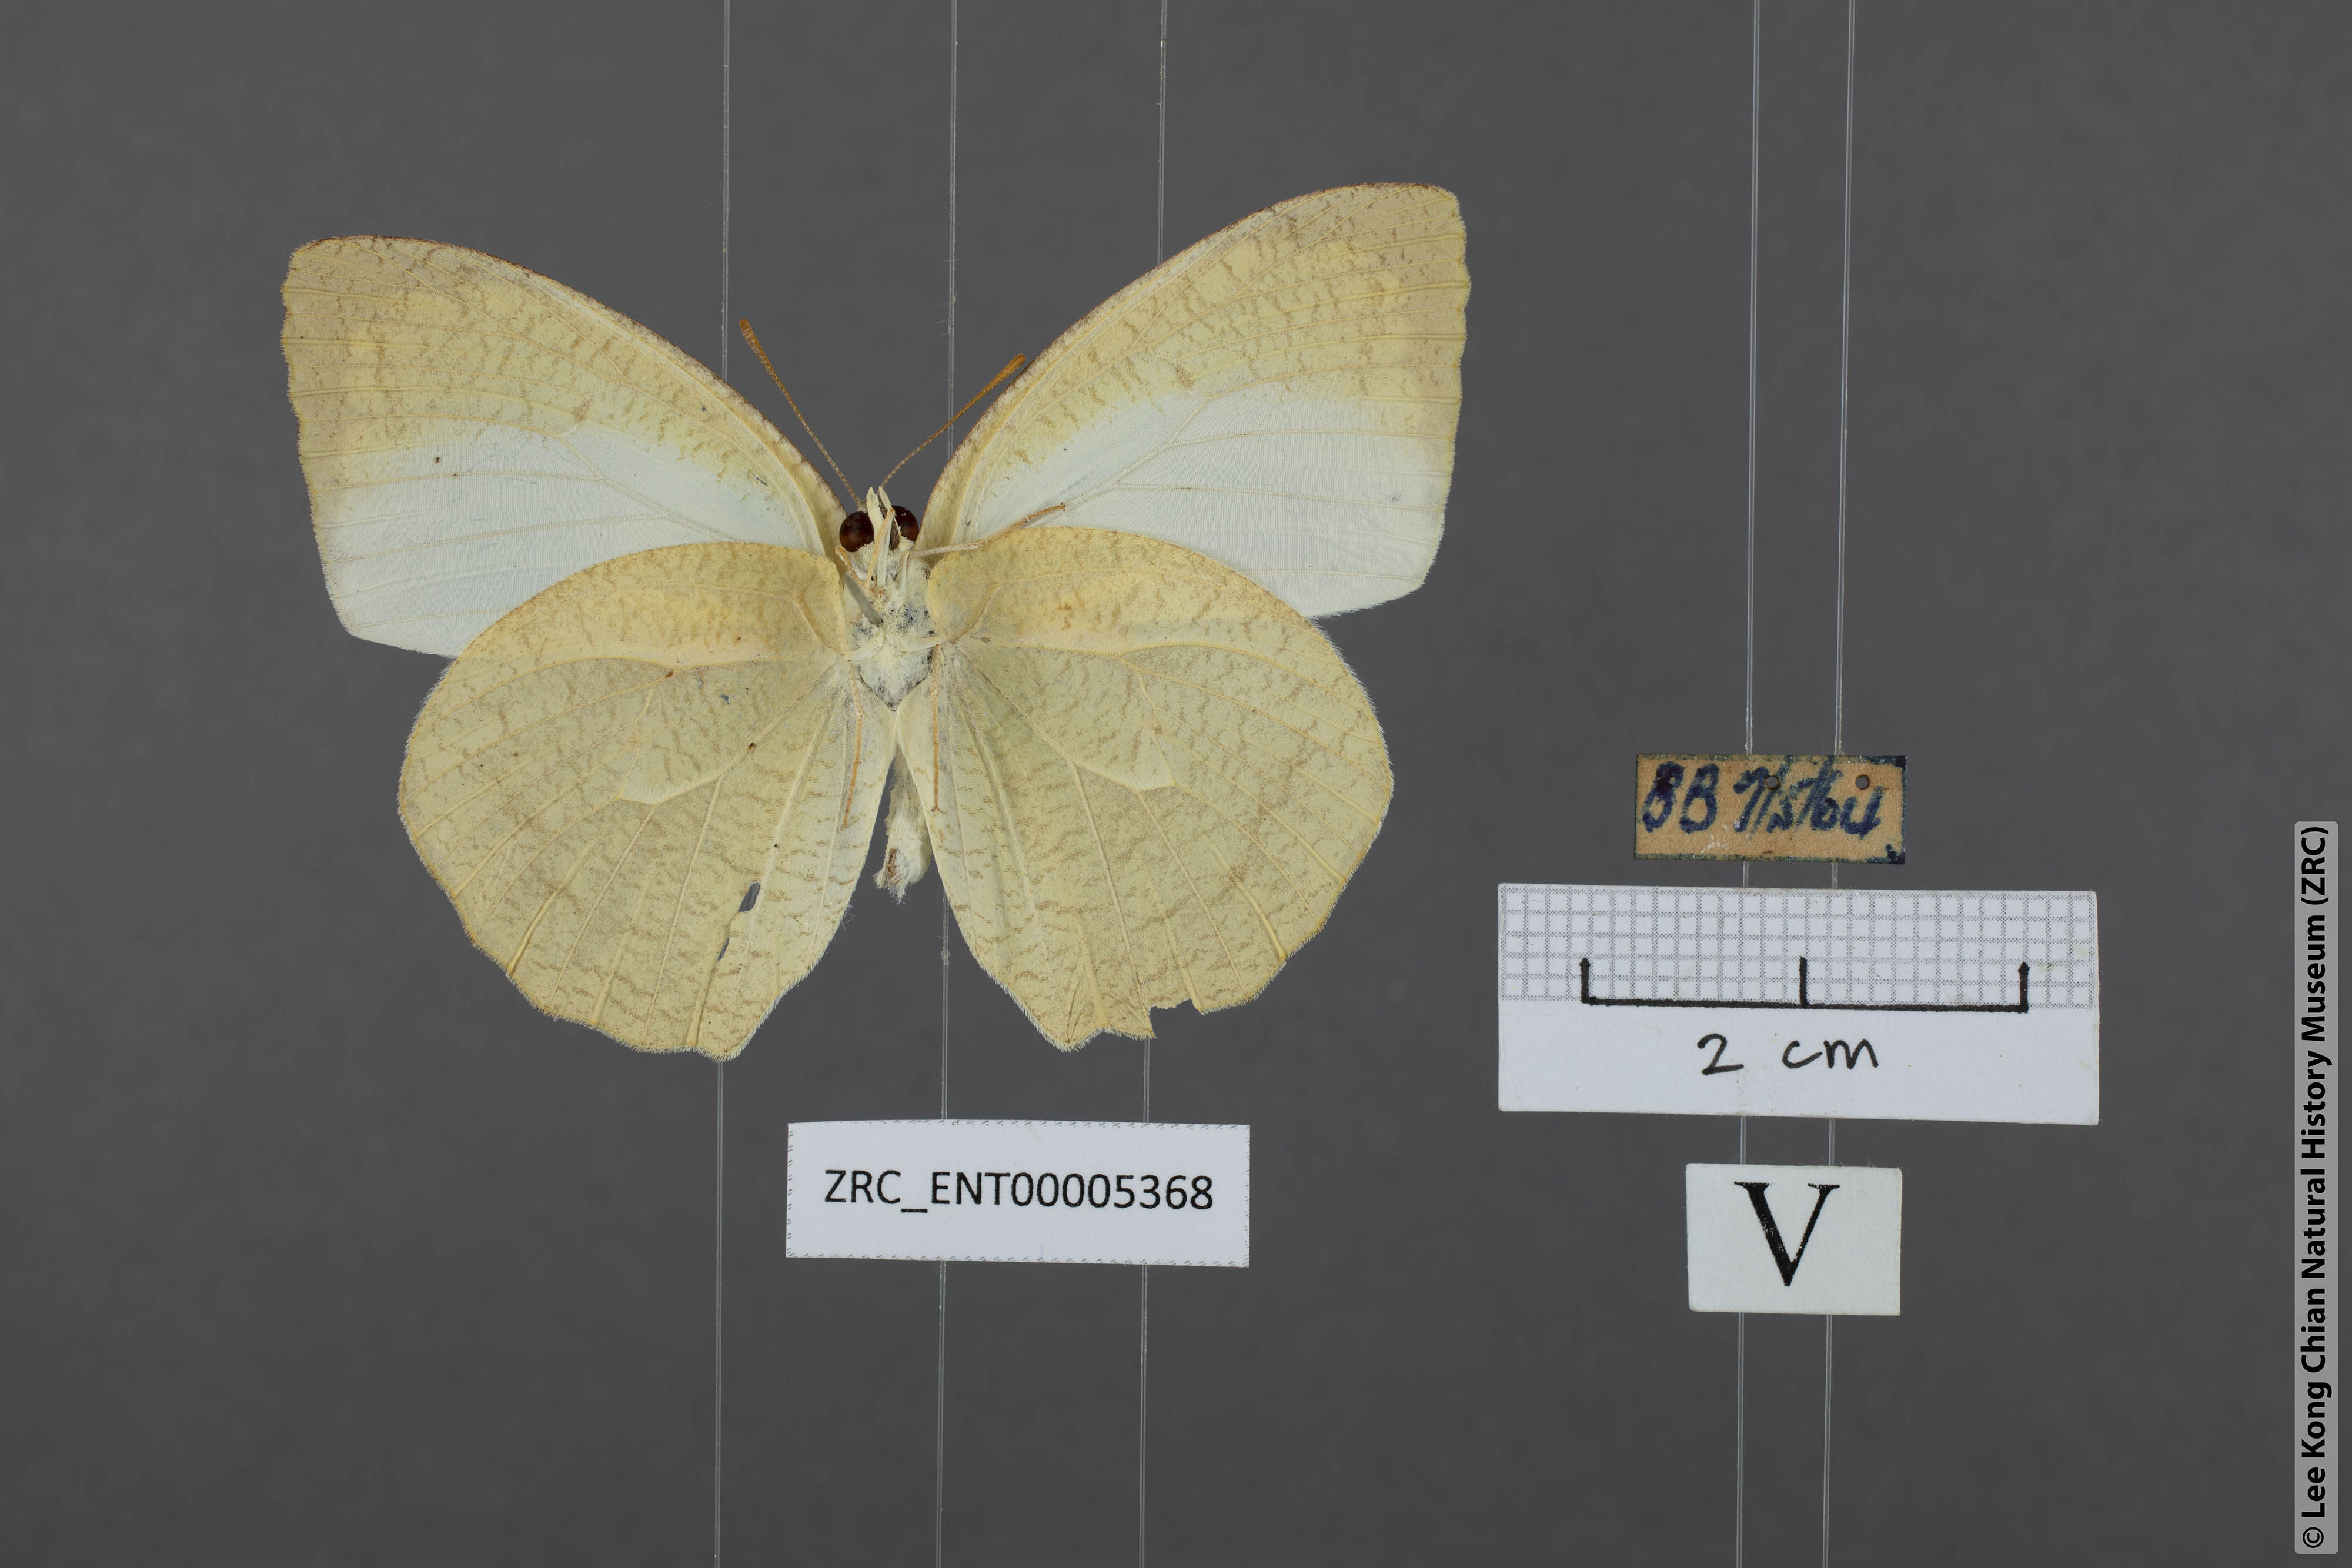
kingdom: Animalia
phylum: Arthropoda
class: Insecta
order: Lepidoptera
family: Pieridae
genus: Catopsilia
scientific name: Catopsilia pyranthe
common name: Mottled emigrant
